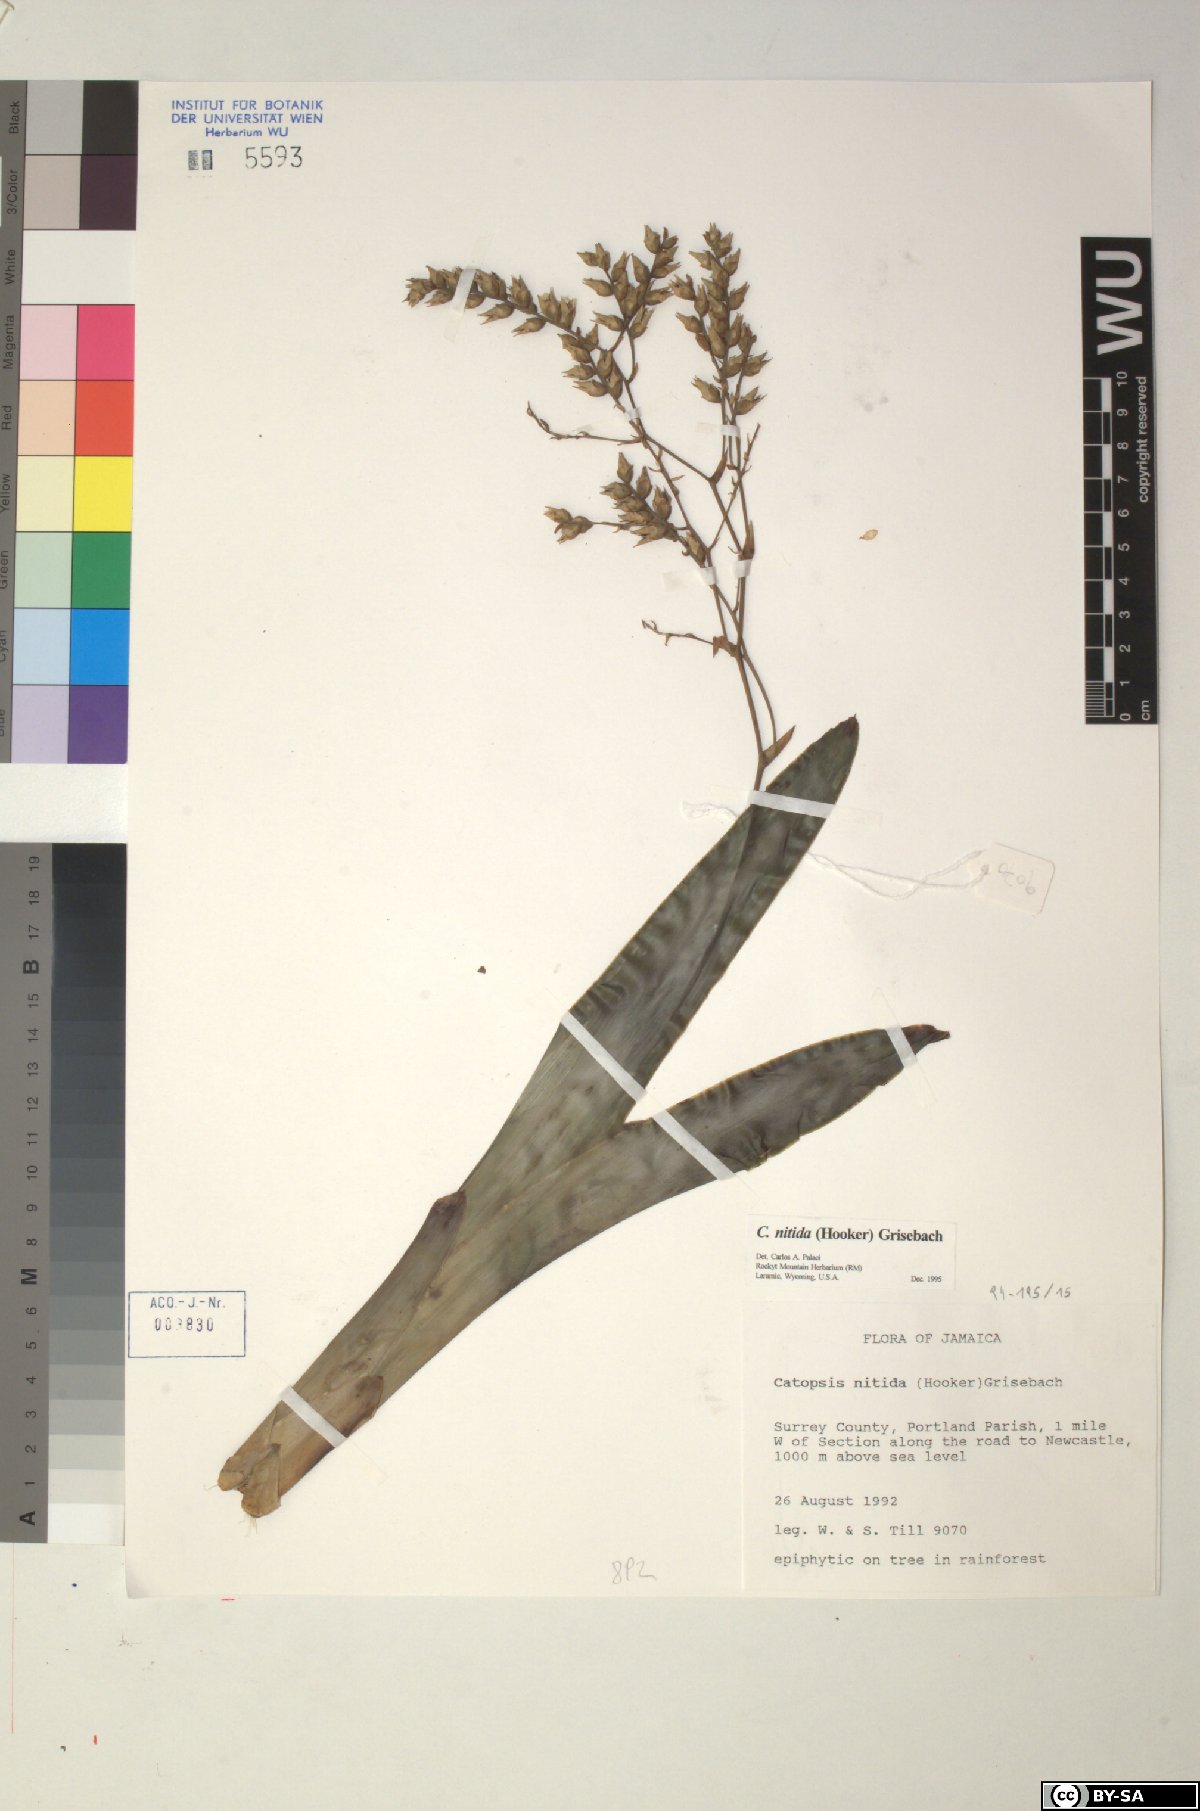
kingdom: Plantae
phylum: Tracheophyta
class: Liliopsida
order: Poales
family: Bromeliaceae
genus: Catopsis
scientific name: Catopsis nitida
